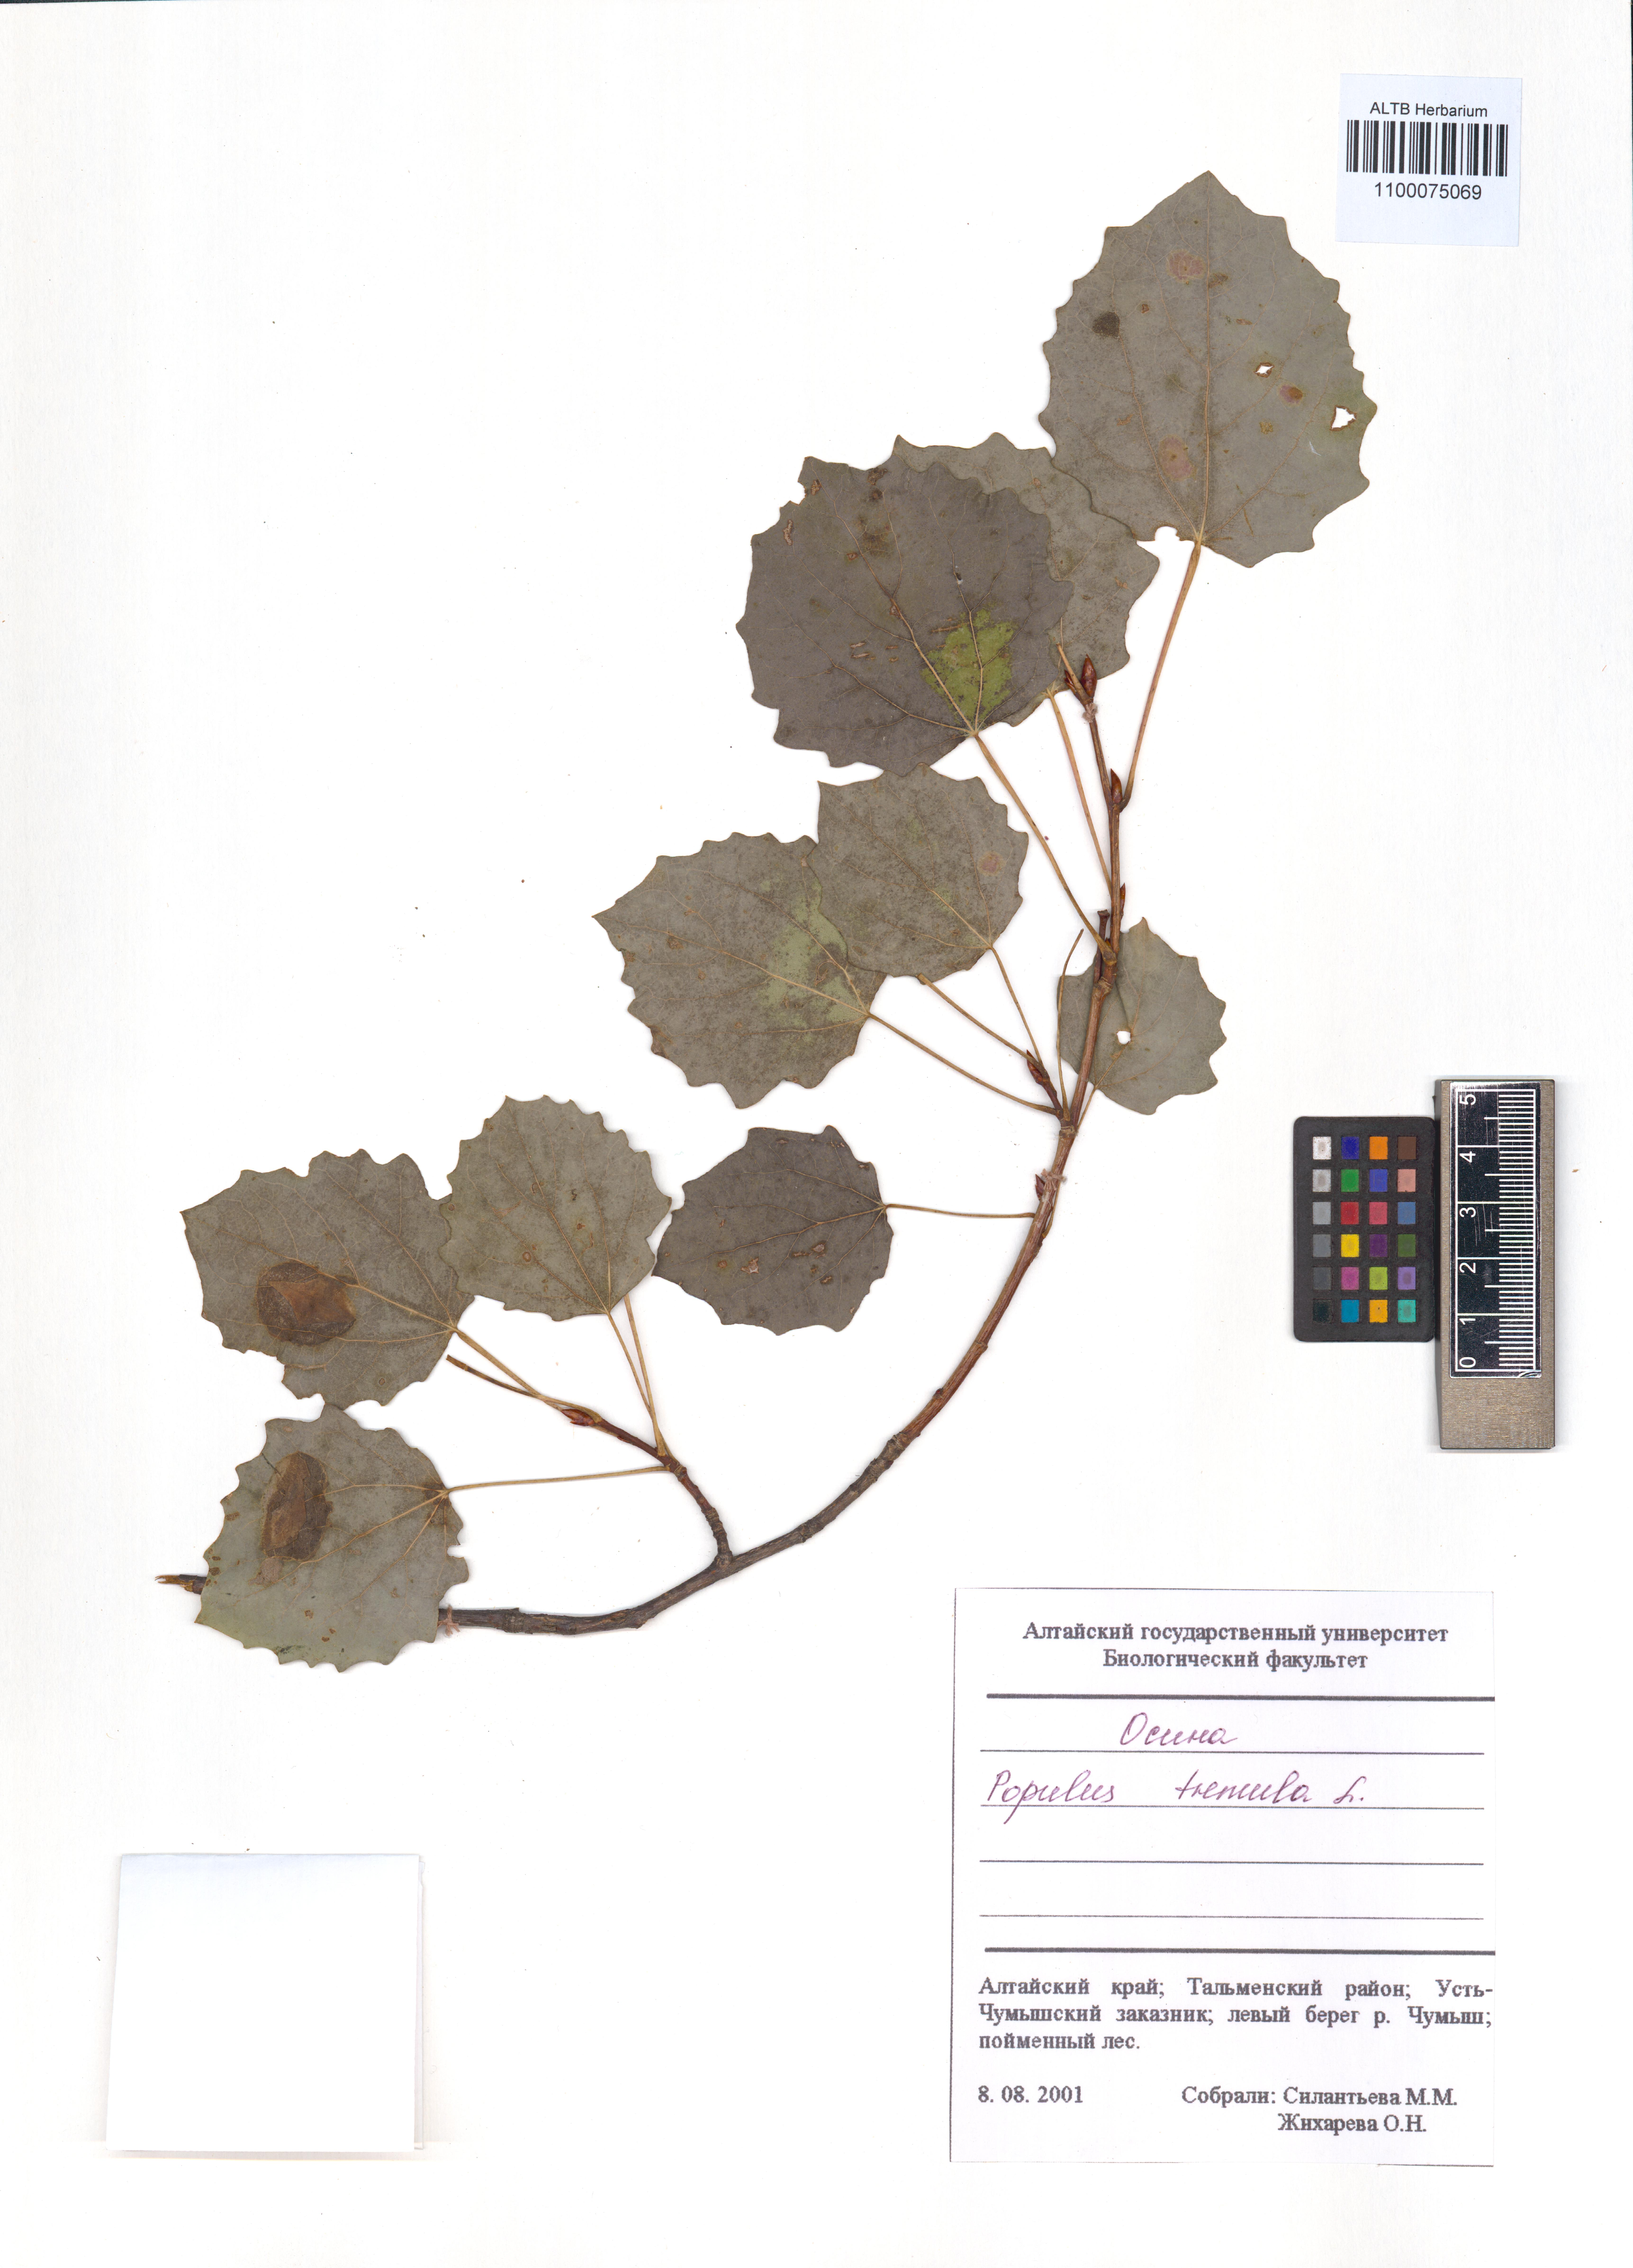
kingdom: Plantae
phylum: Tracheophyta
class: Magnoliopsida
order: Malpighiales
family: Salicaceae
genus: Populus
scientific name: Populus tremula
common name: European aspen
